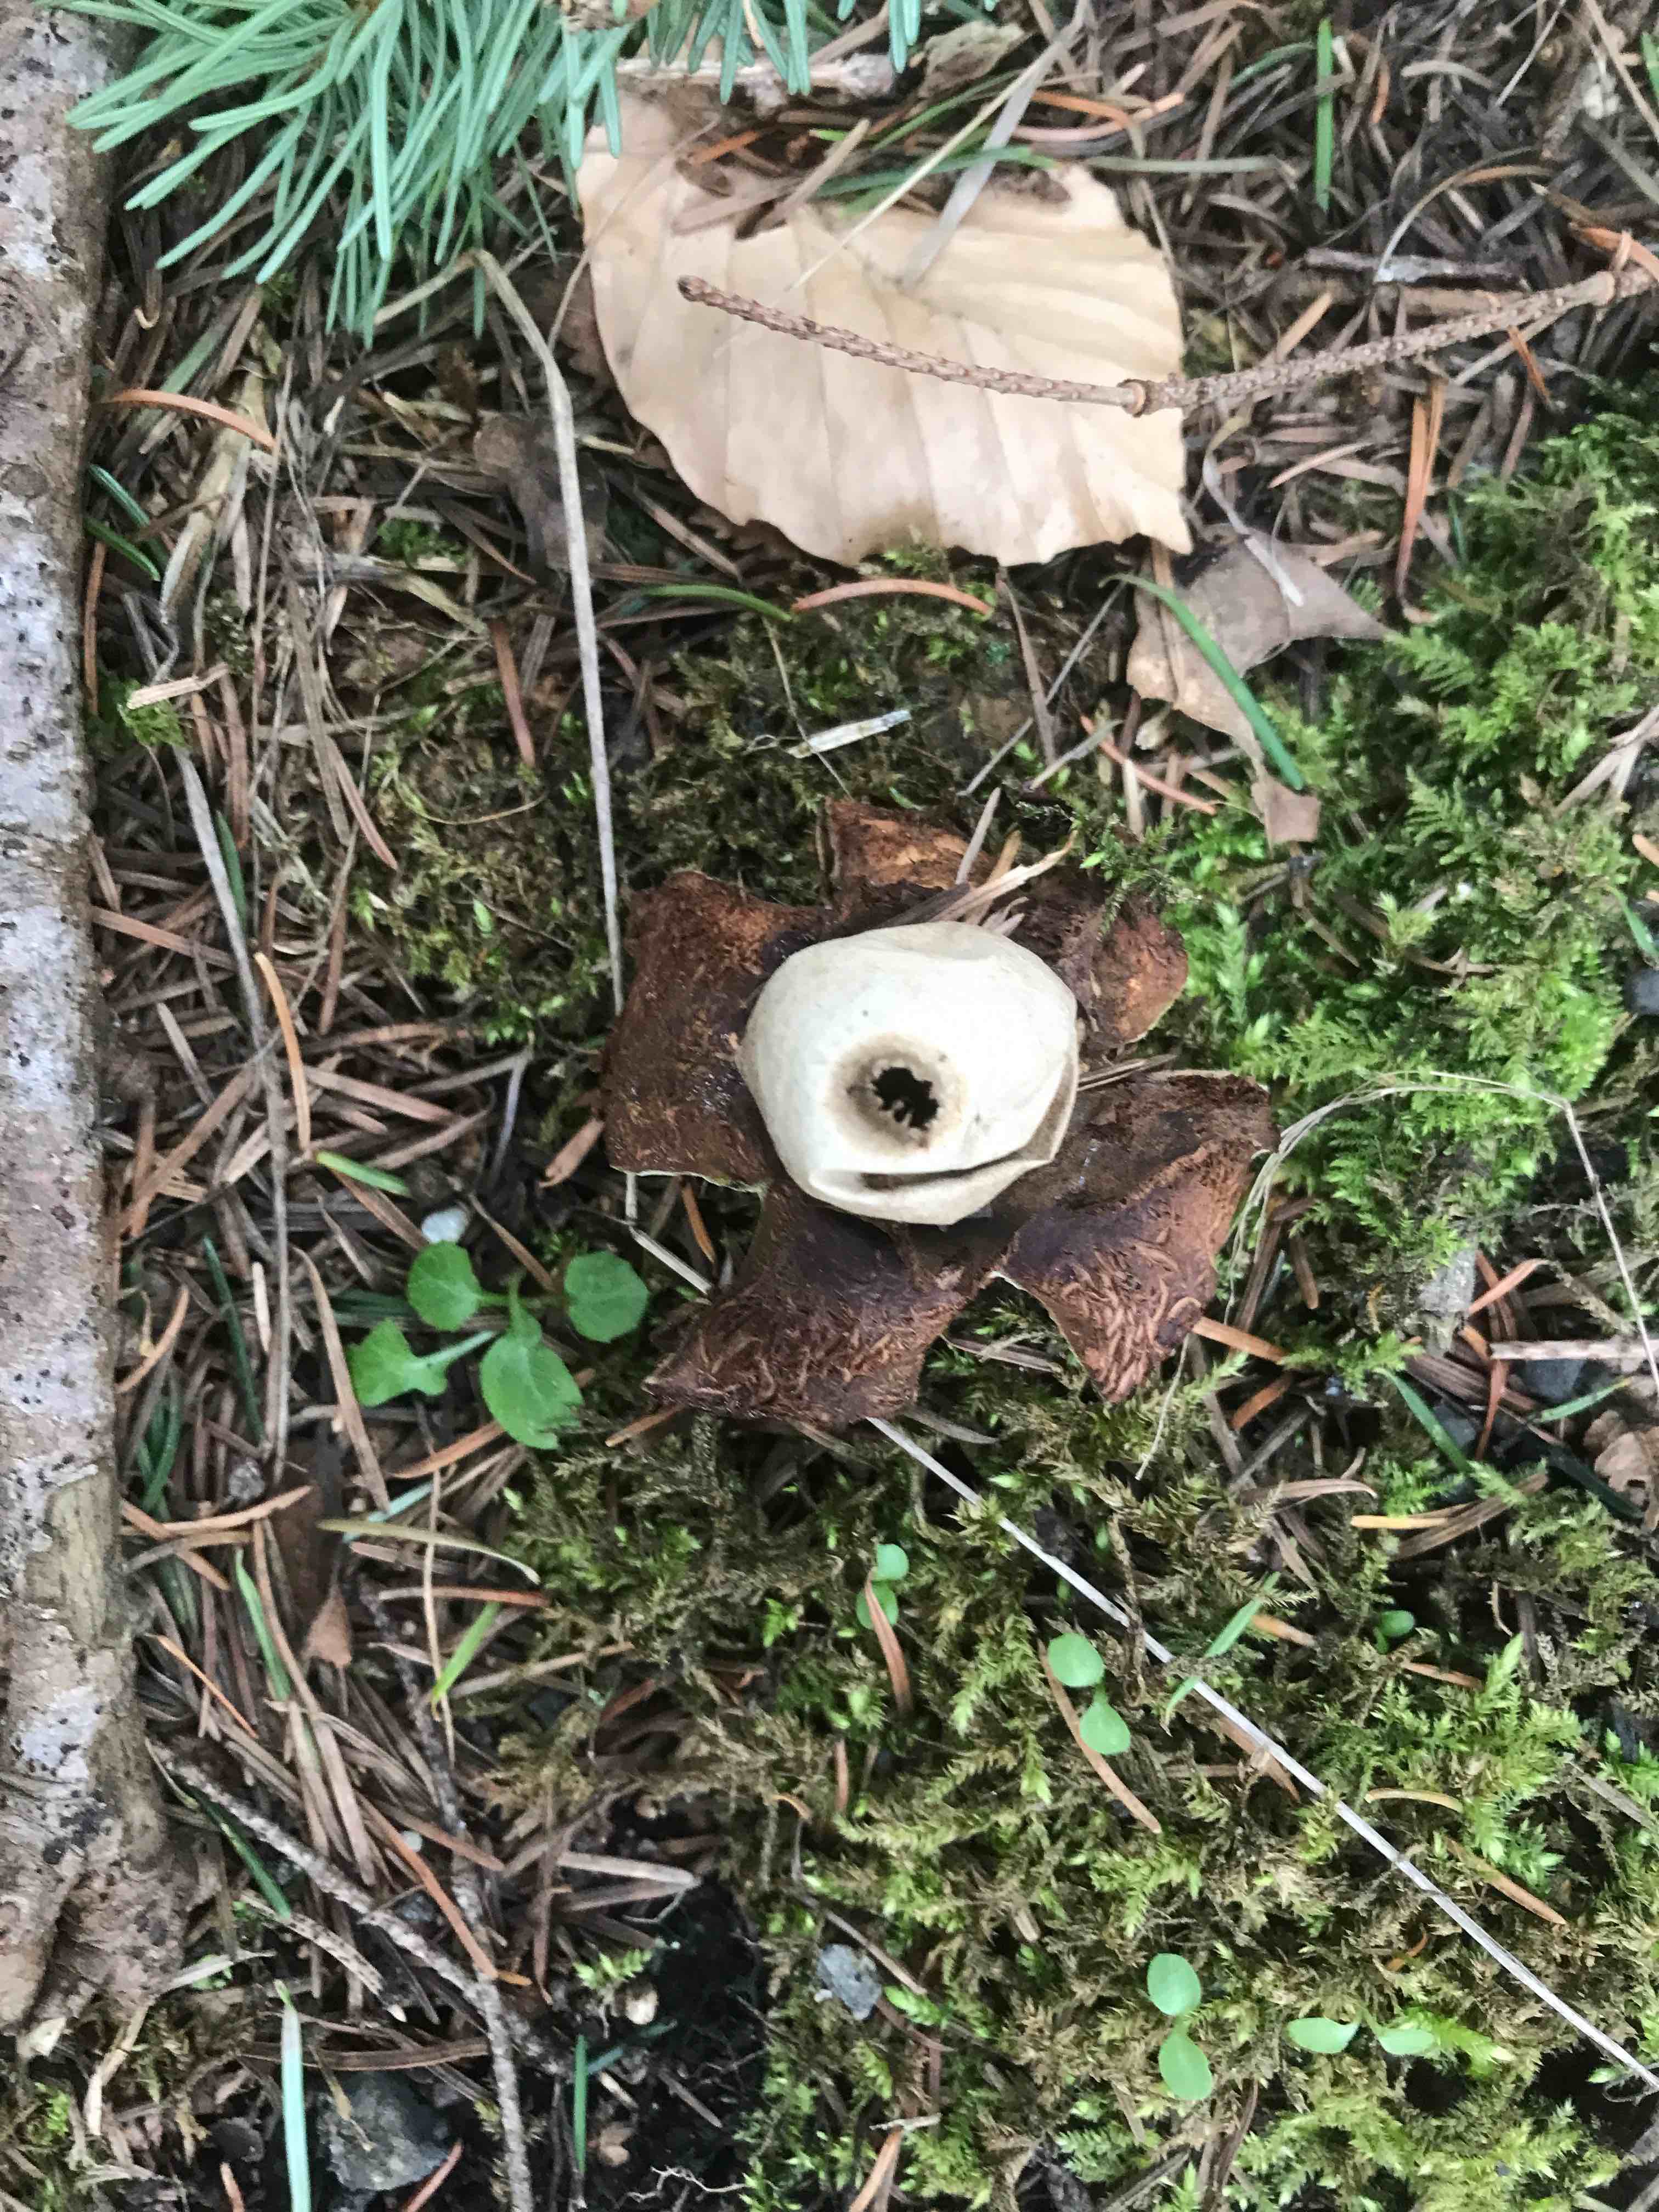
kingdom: Fungi
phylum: Basidiomycota
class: Agaricomycetes
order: Geastrales
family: Geastraceae
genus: Geastrum
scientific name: Geastrum michelianum
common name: kødet stjernebold
